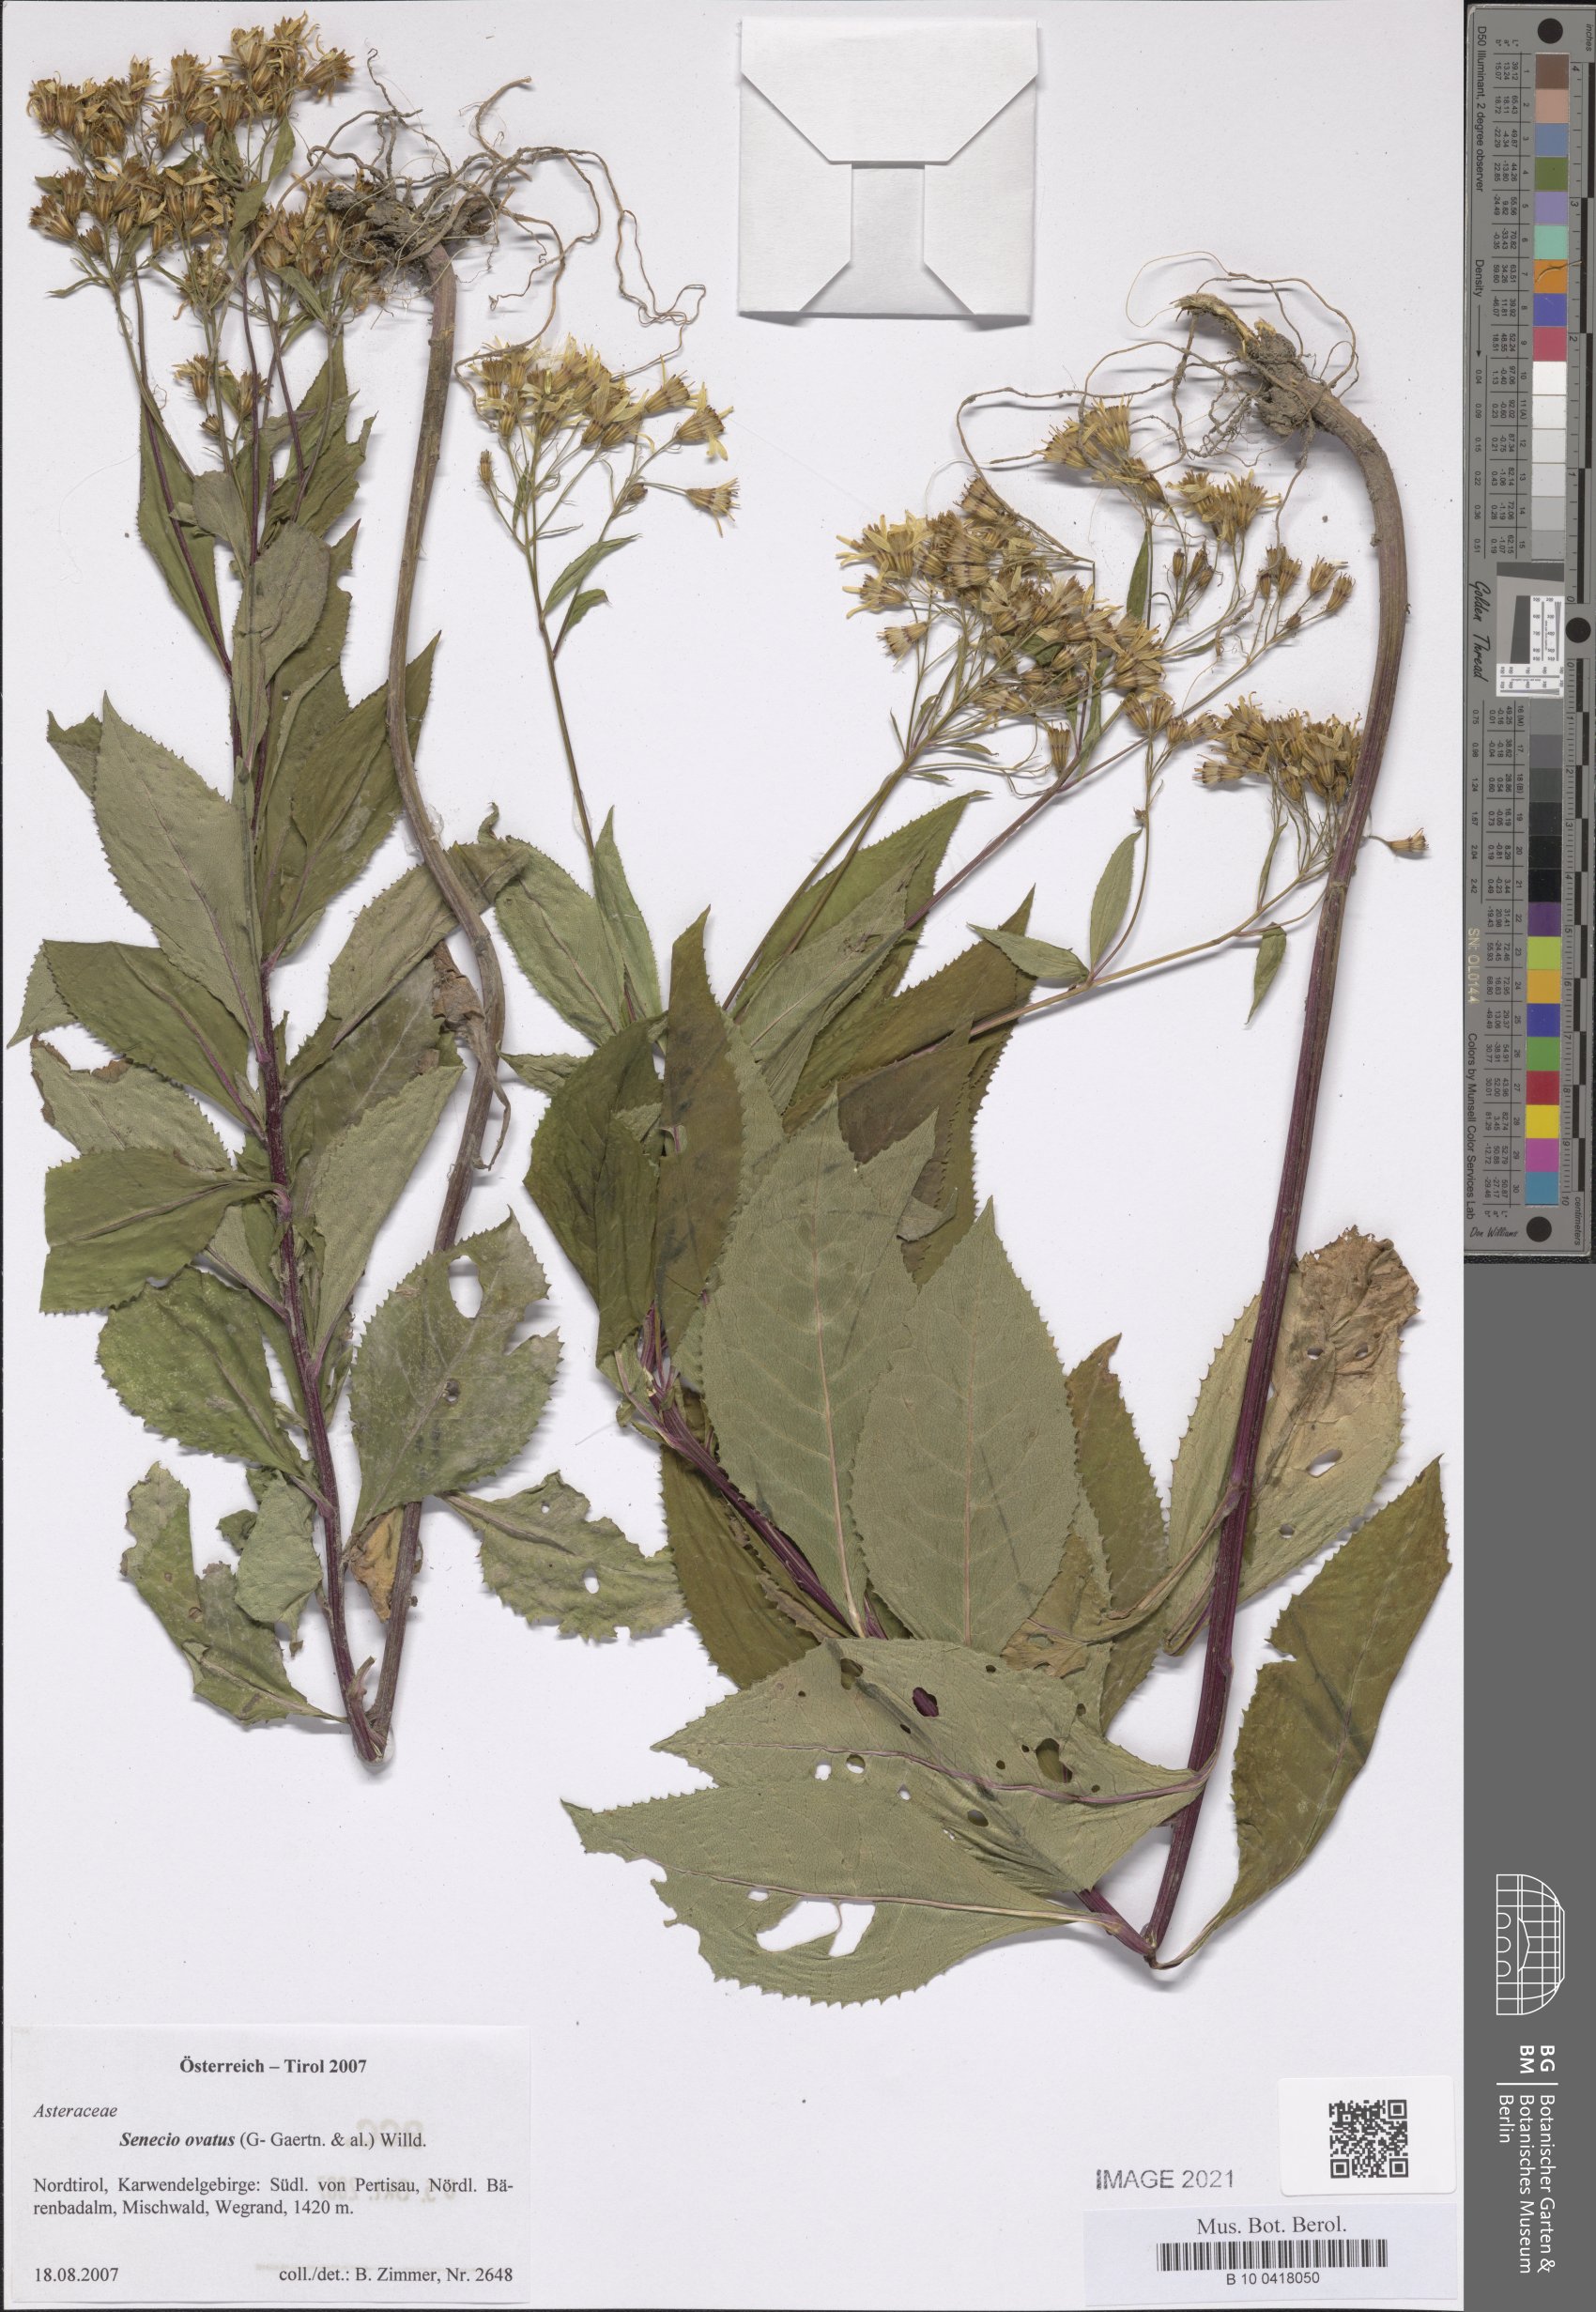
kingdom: Plantae
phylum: Tracheophyta
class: Magnoliopsida
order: Asterales
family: Asteraceae
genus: Senecio
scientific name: Senecio ovatus
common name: Wood ragwort
